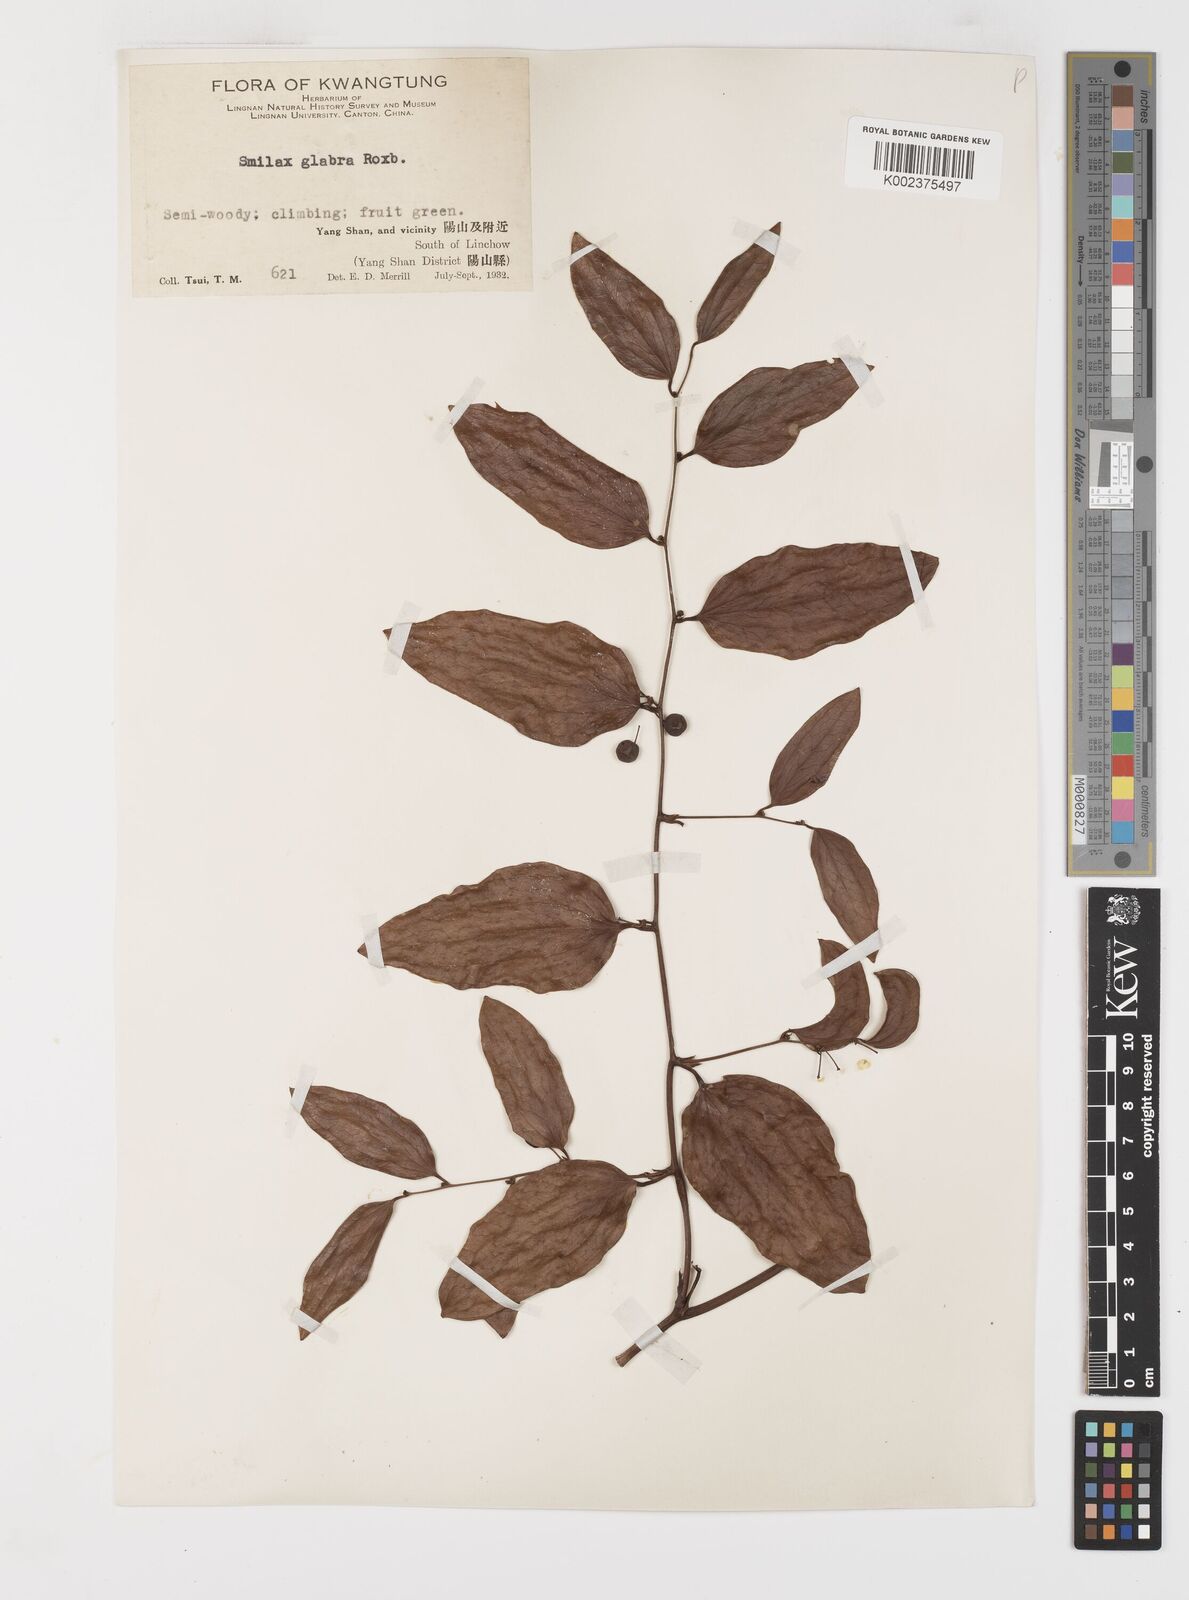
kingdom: Plantae
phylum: Tracheophyta
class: Liliopsida
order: Liliales
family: Smilacaceae
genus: Smilax
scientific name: Smilax glabra
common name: Chinese smilax
